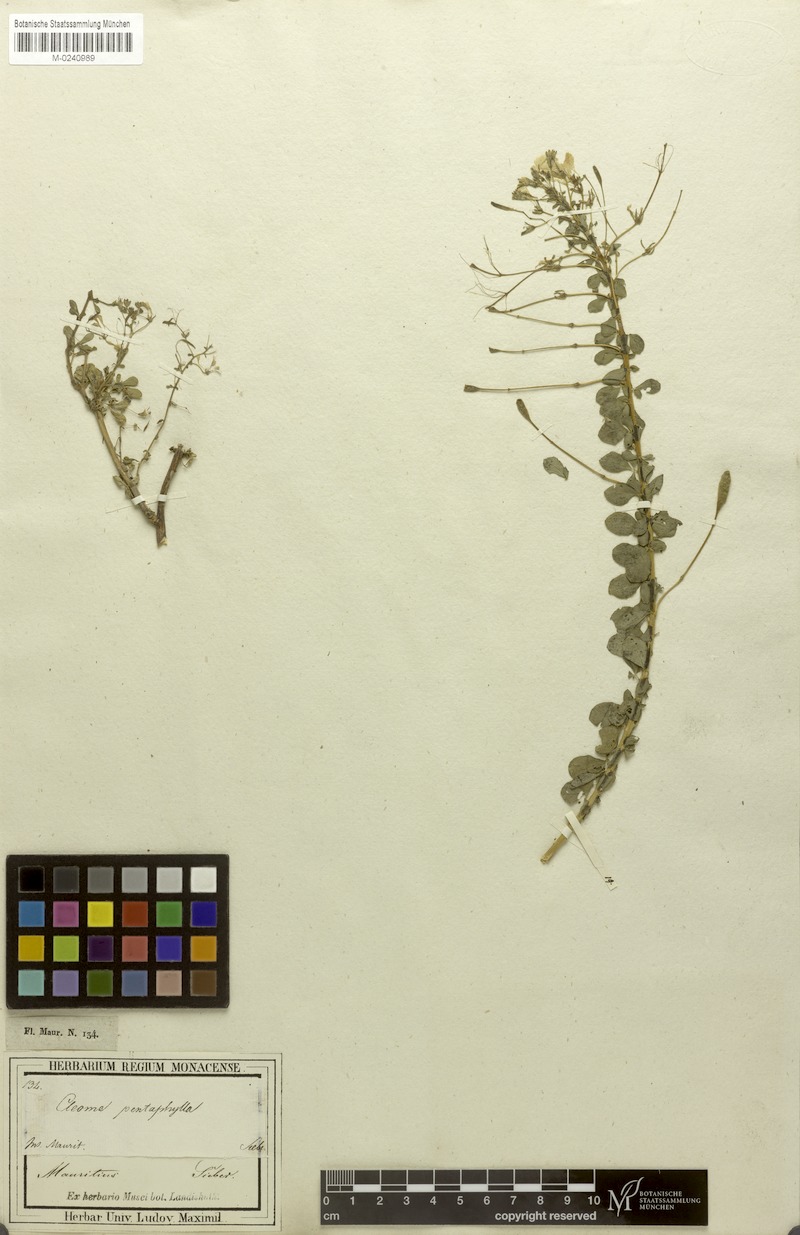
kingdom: Plantae
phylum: Tracheophyta
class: Magnoliopsida
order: Brassicales
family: Cleomaceae
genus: Gynandropsis
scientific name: Gynandropsis gynandra
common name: Spiderwisp
